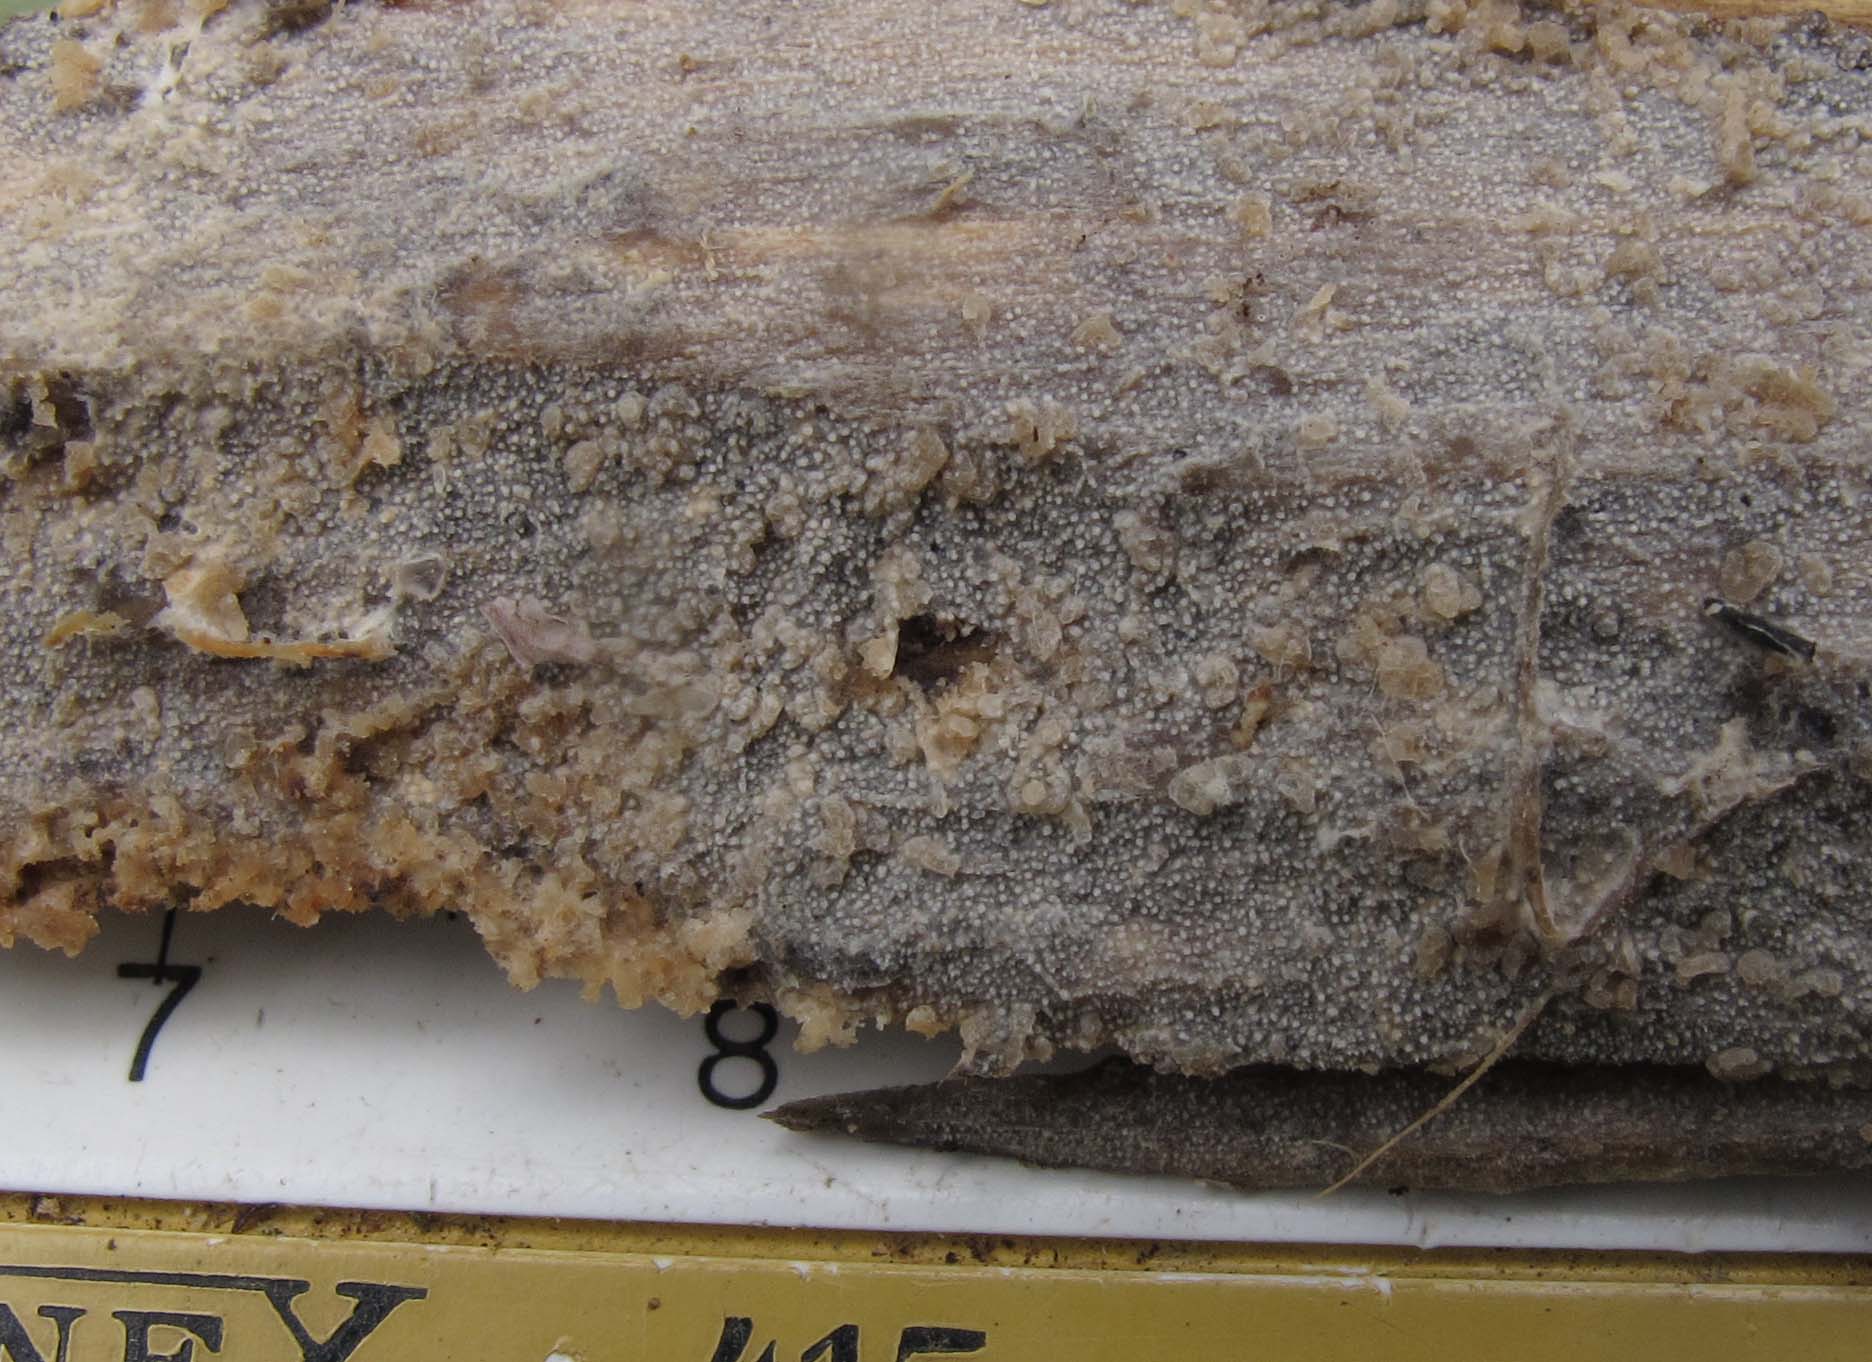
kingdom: Fungi
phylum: Basidiomycota
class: Agaricomycetes
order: Hymenochaetales
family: Rickenellaceae
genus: Resinicium
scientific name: Resinicium bicolor
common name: almindelig vokstand
